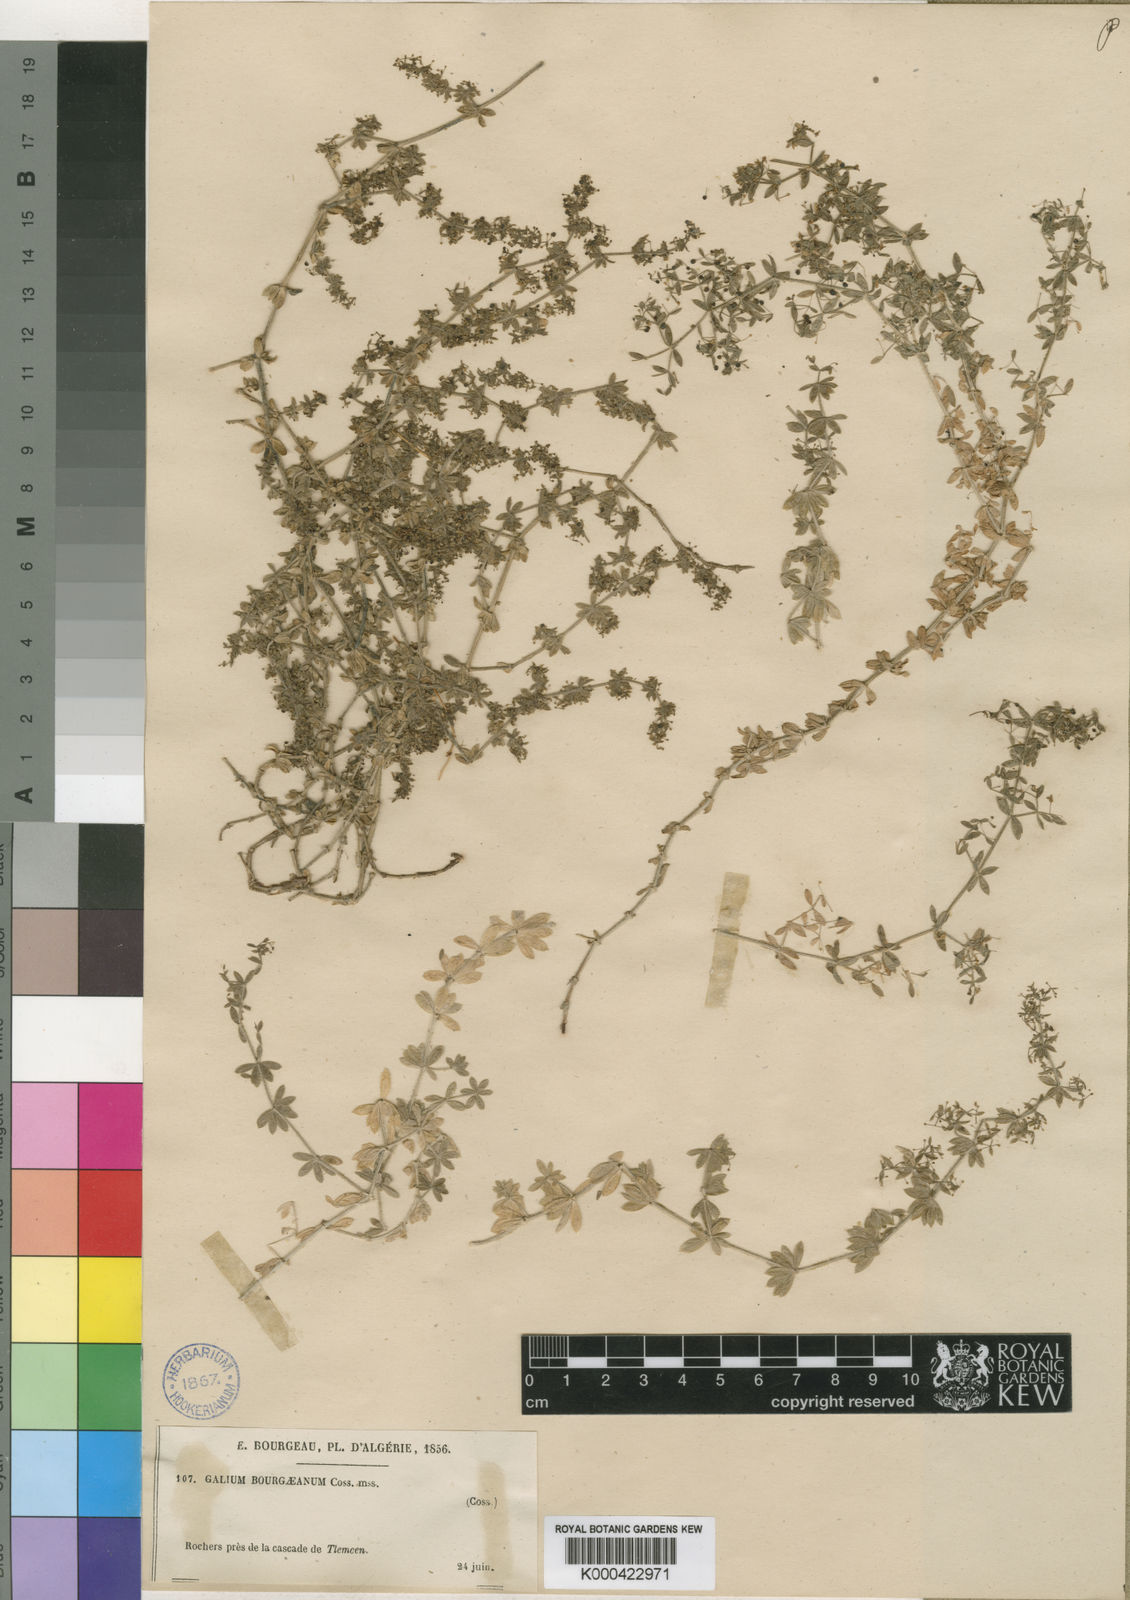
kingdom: Plantae
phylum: Tracheophyta
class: Magnoliopsida
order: Gentianales
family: Rubiaceae
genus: Galium
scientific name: Galium
